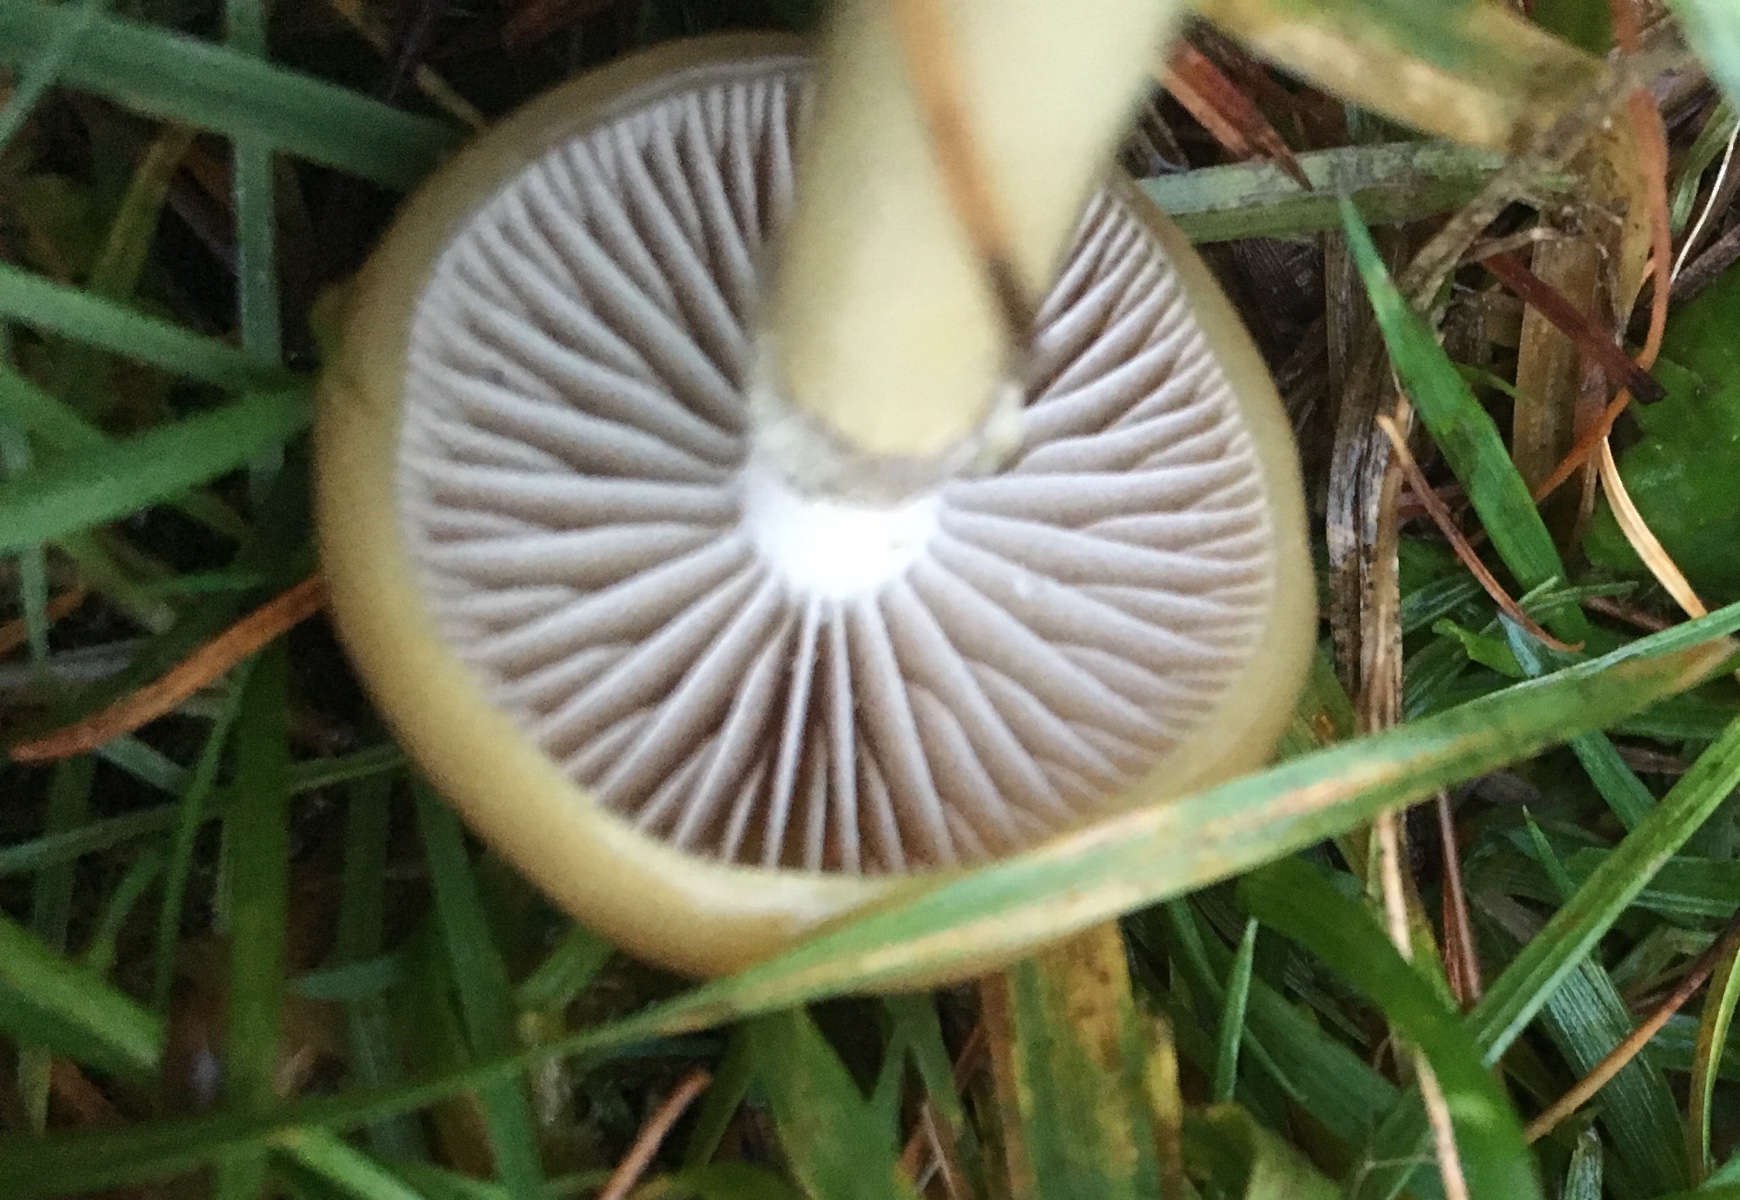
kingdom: Fungi
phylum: Basidiomycota
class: Agaricomycetes
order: Agaricales
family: Strophariaceae
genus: Protostropharia
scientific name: Protostropharia semiglobata
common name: halvkugleformet bredblad
